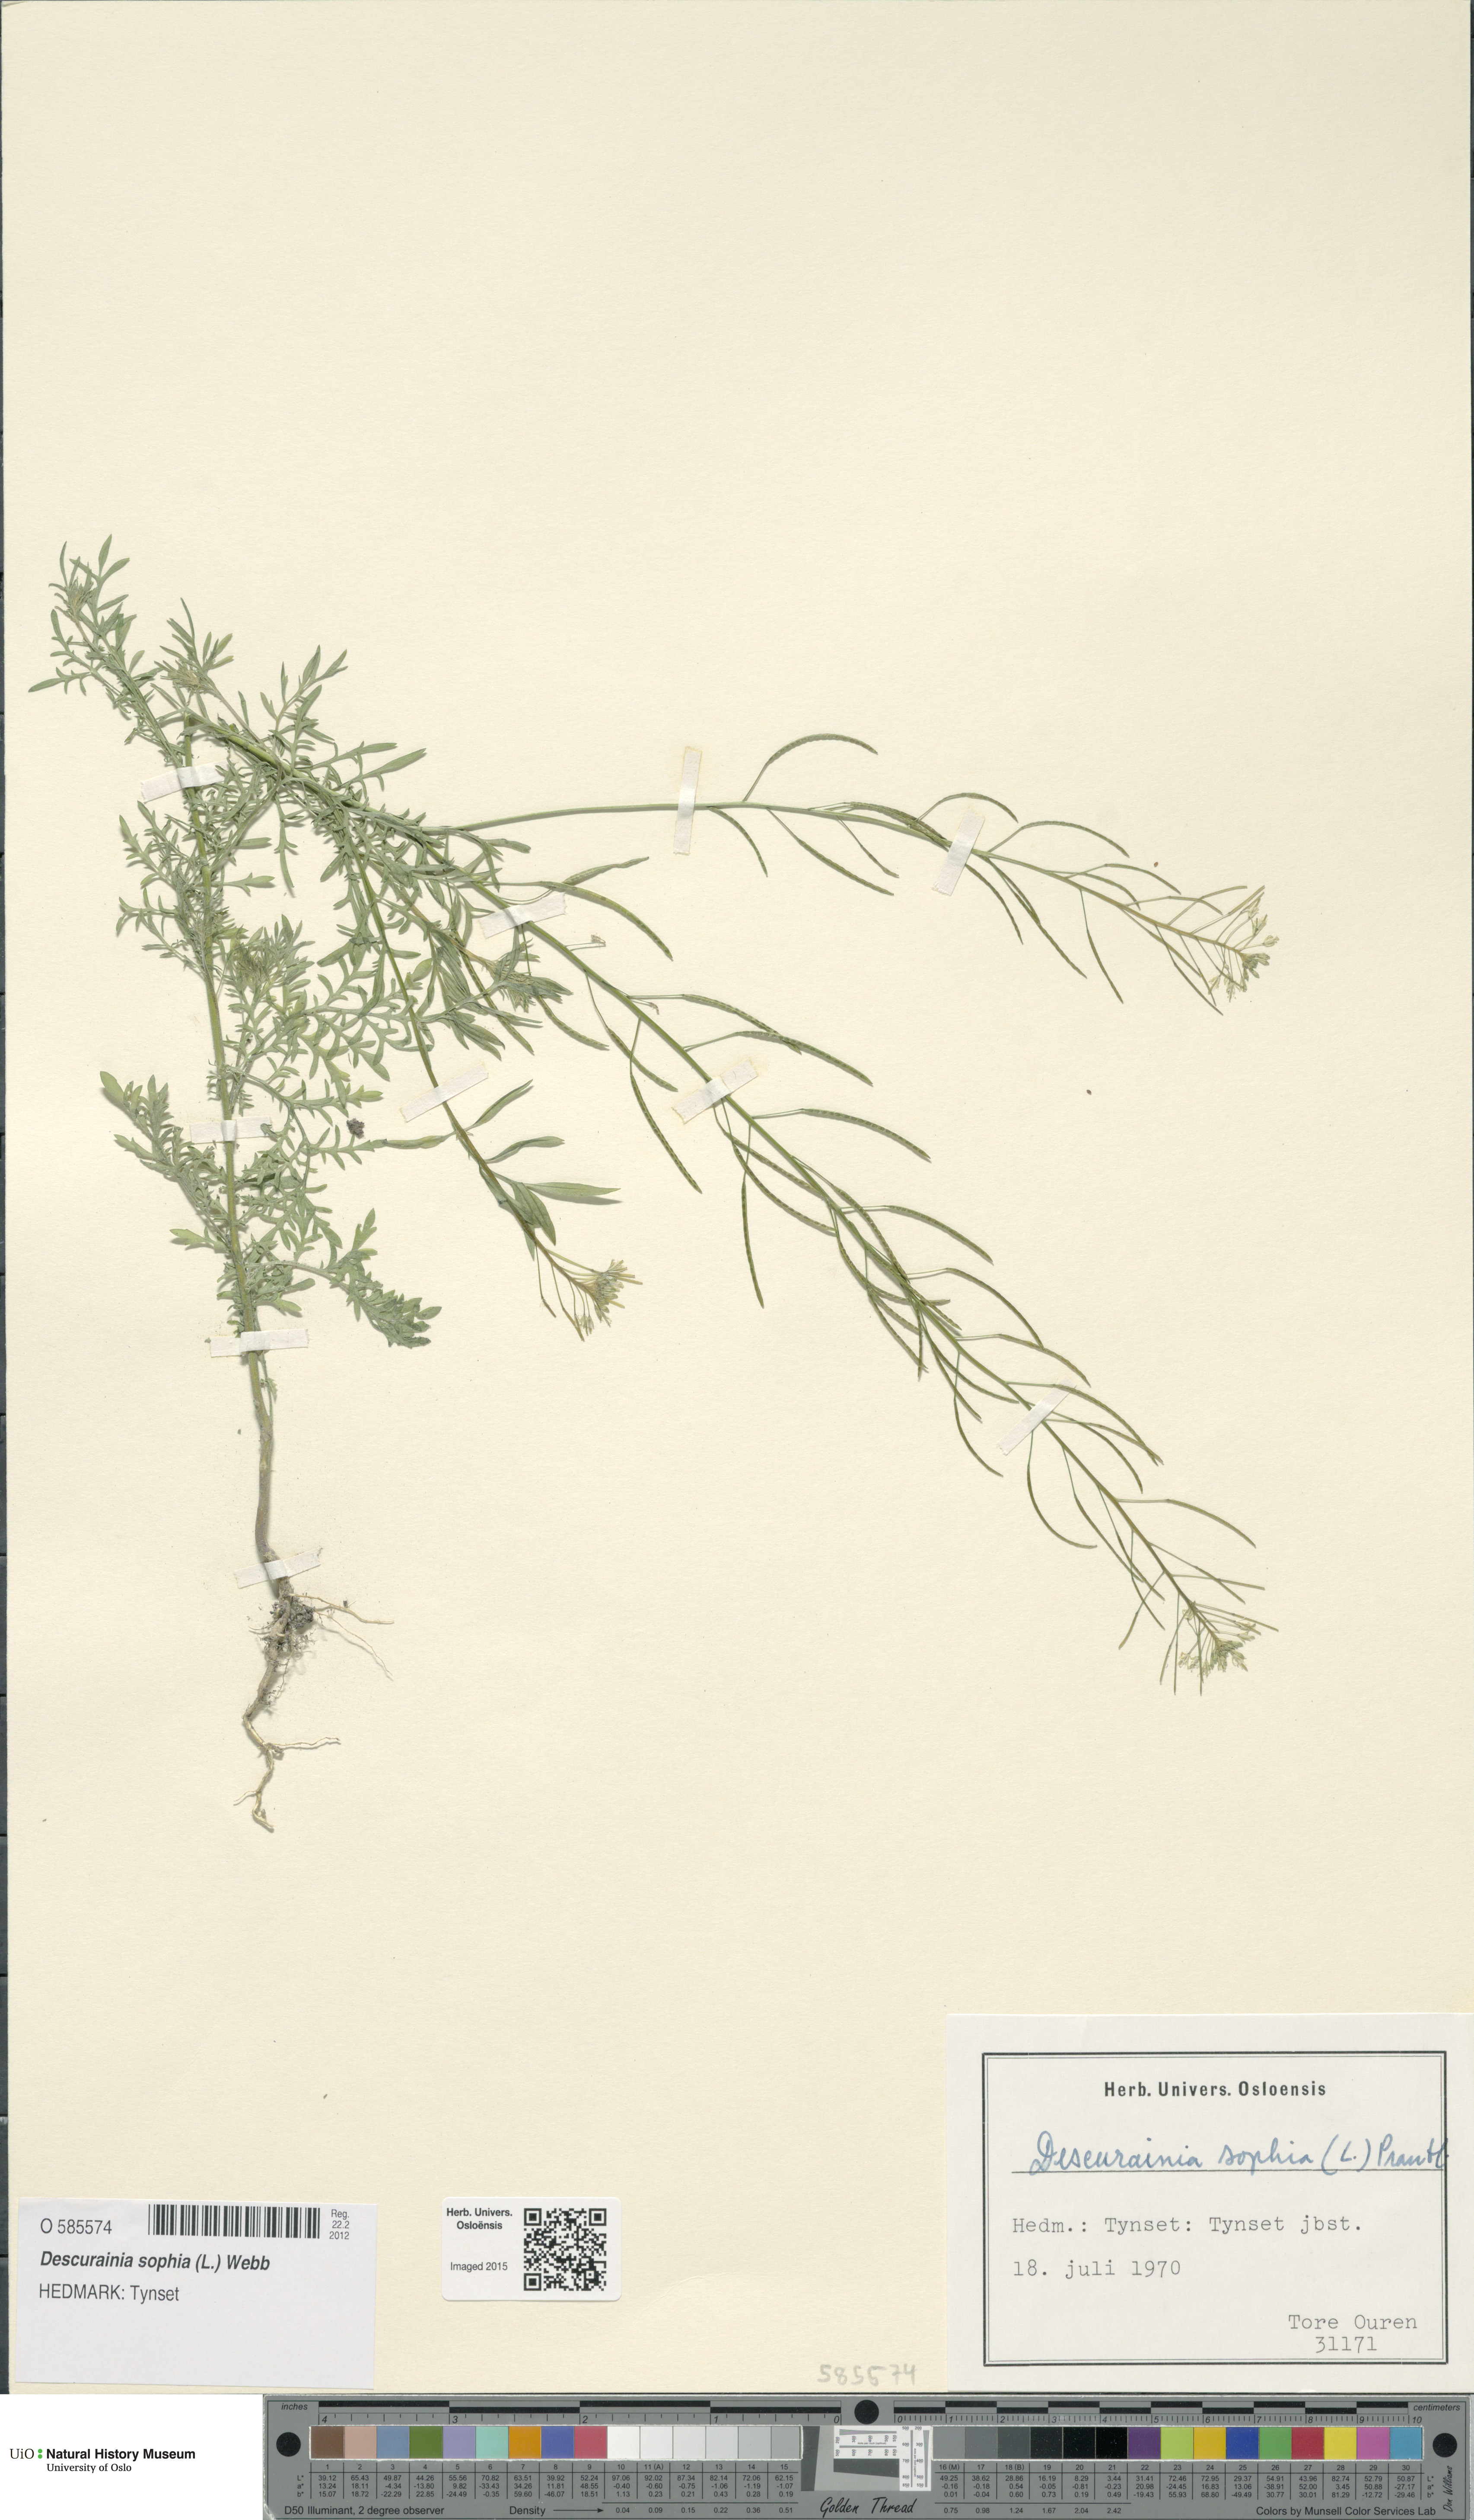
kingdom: Plantae
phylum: Tracheophyta
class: Magnoliopsida
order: Brassicales
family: Brassicaceae
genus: Descurainia
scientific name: Descurainia sophia
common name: Flixweed
